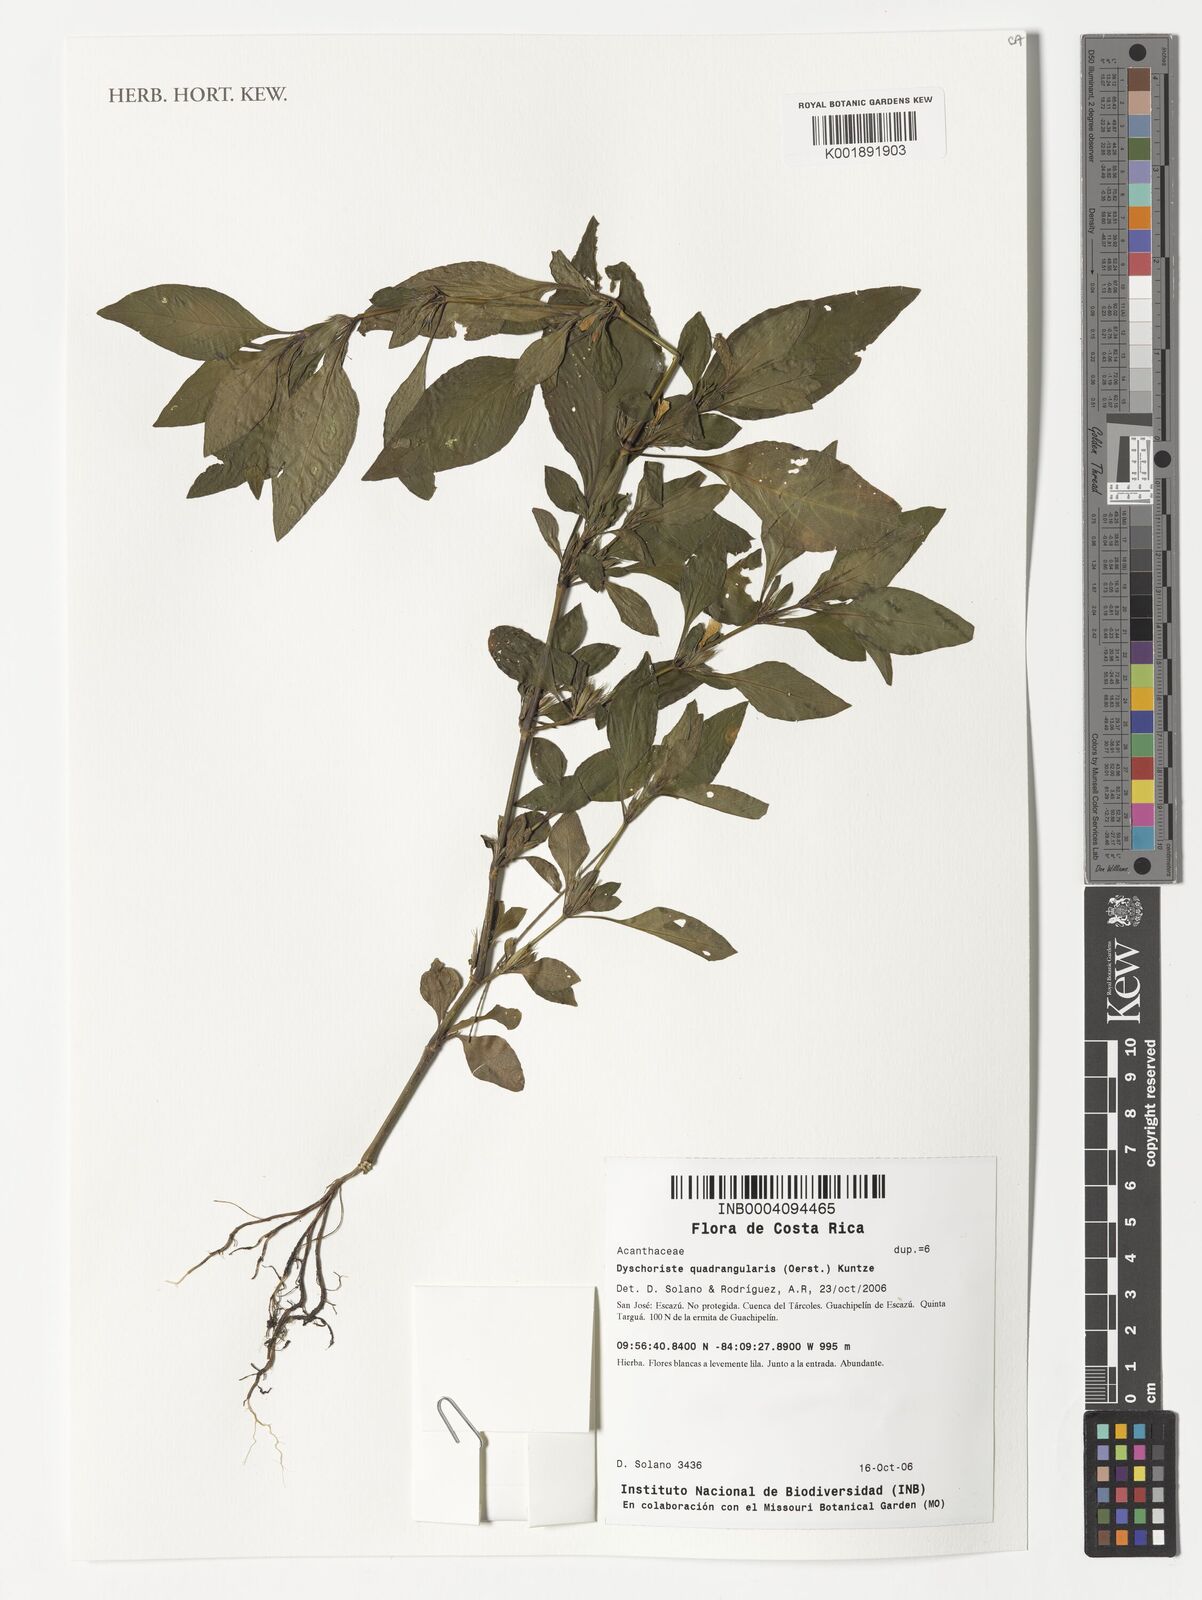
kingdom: Plantae
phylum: Tracheophyta
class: Magnoliopsida
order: Lamiales
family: Acanthaceae
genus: Dyschoriste
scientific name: Dyschoriste quadrangularis
